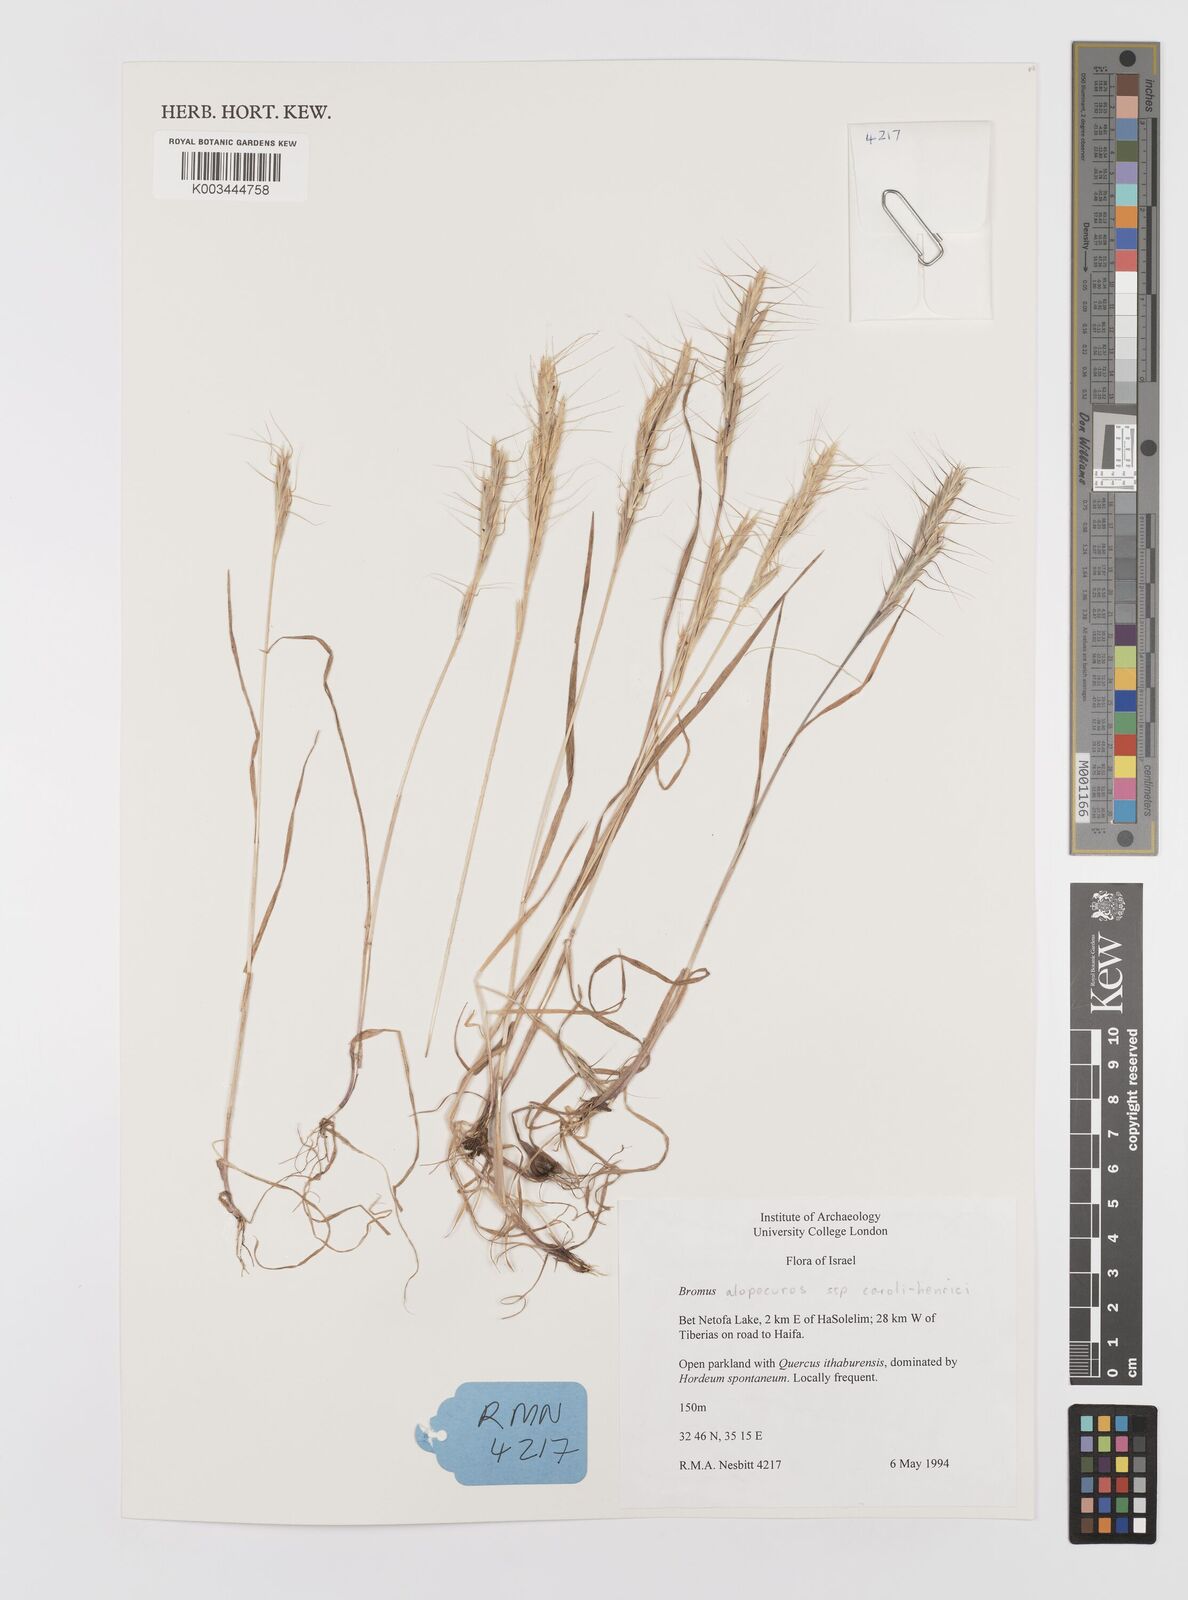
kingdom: Plantae
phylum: Tracheophyta
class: Liliopsida
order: Poales
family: Poaceae
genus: Bromus
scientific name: Bromus alopecuros
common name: Weedy brome
